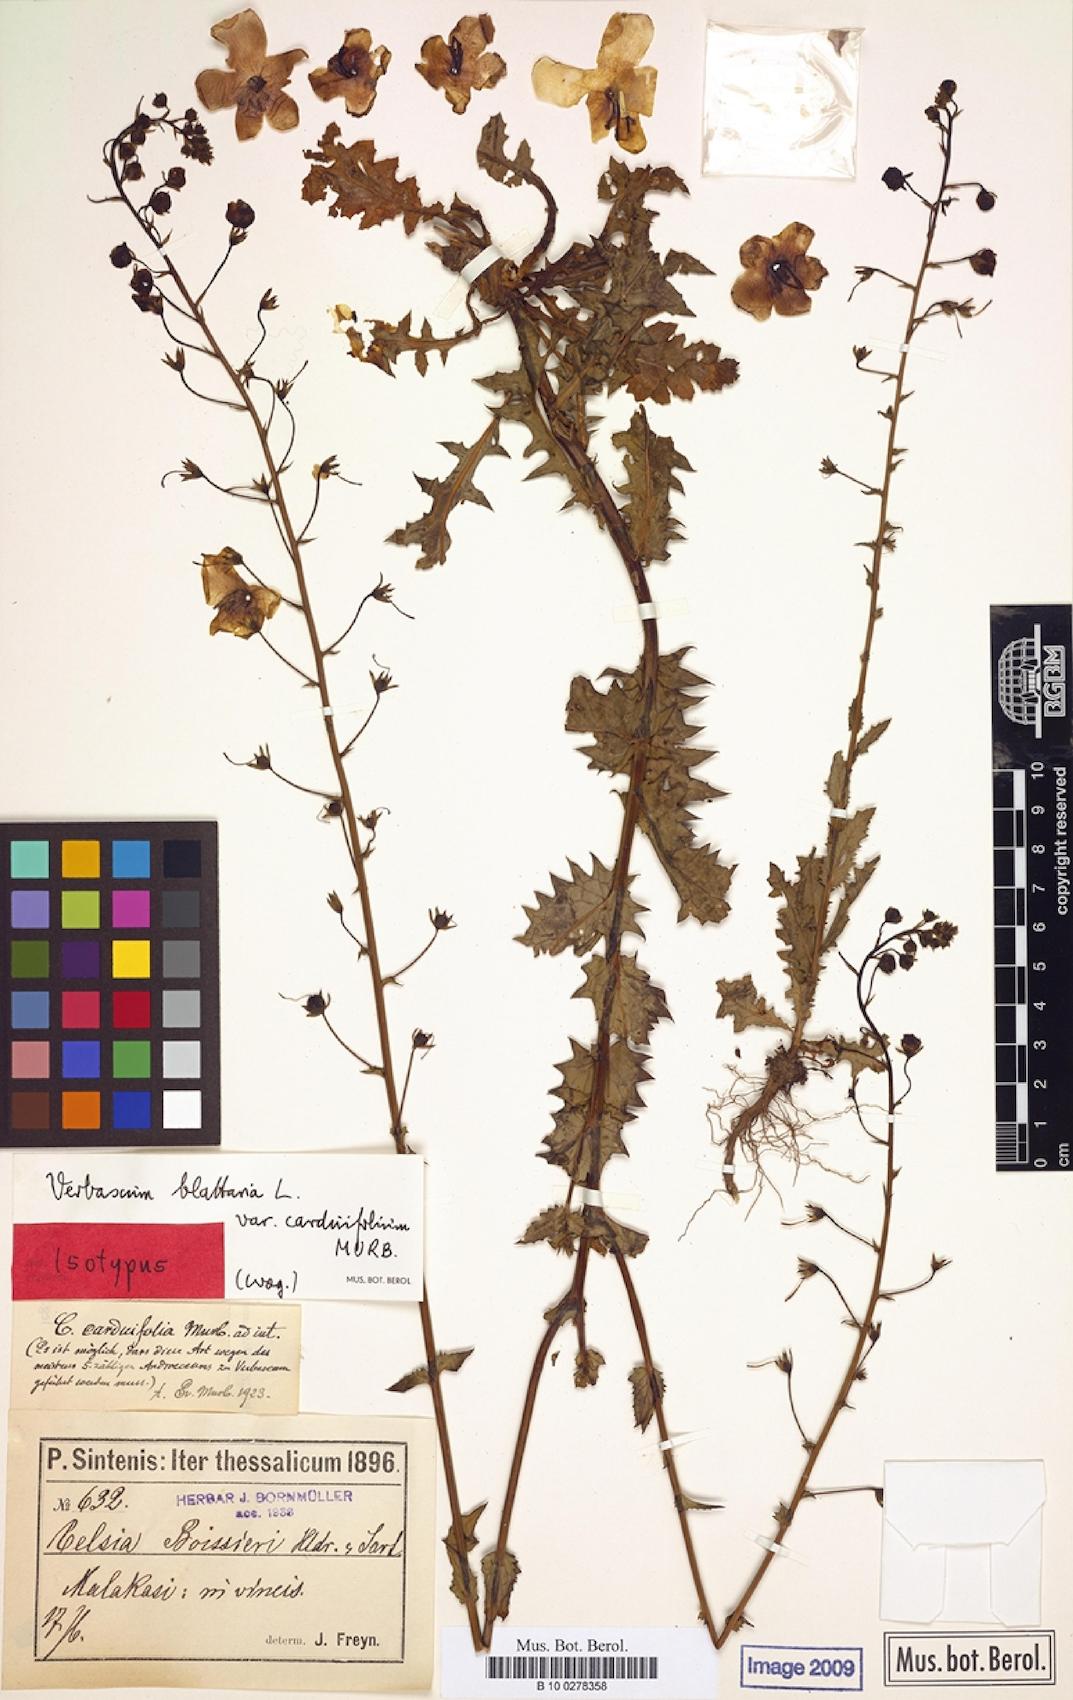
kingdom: Plantae
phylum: Tracheophyta
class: Magnoliopsida
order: Lamiales
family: Scrophulariaceae
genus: Verbascum
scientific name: Verbascum blattaria
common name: Moth mullein
